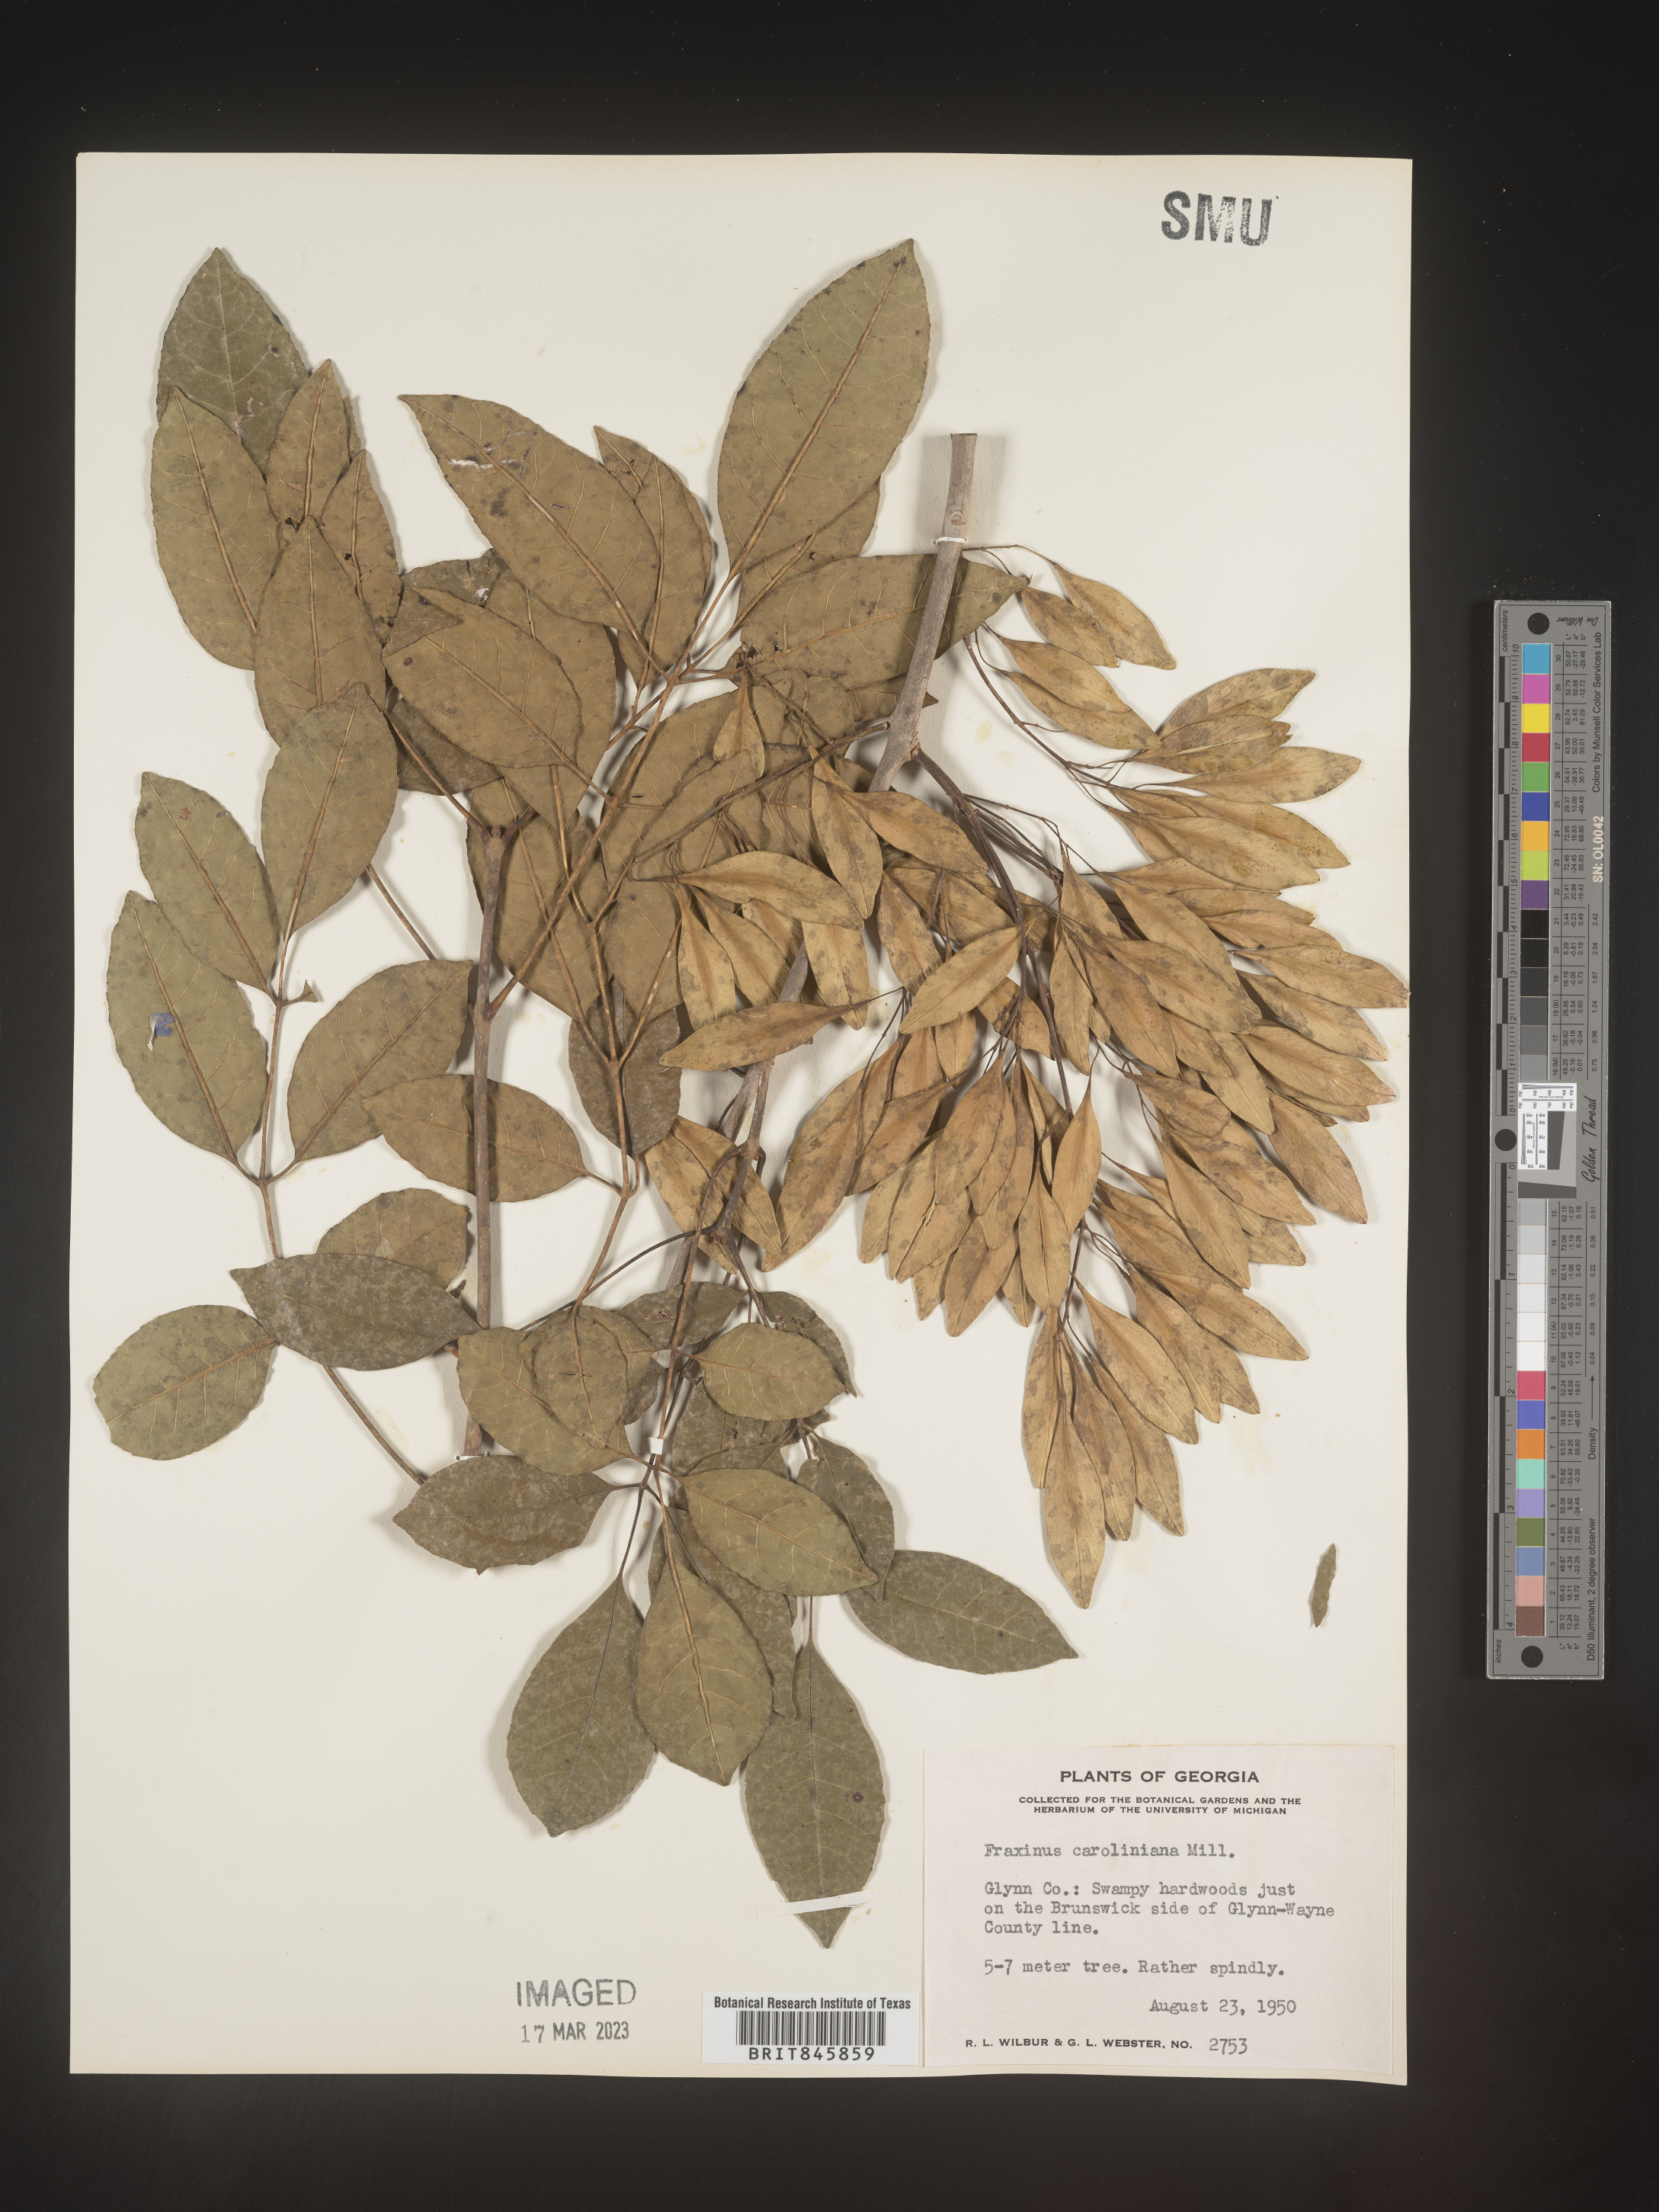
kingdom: Plantae
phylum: Tracheophyta
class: Magnoliopsida
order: Lamiales
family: Oleaceae
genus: Fraxinus
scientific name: Fraxinus caroliniana
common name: Carolina ash
